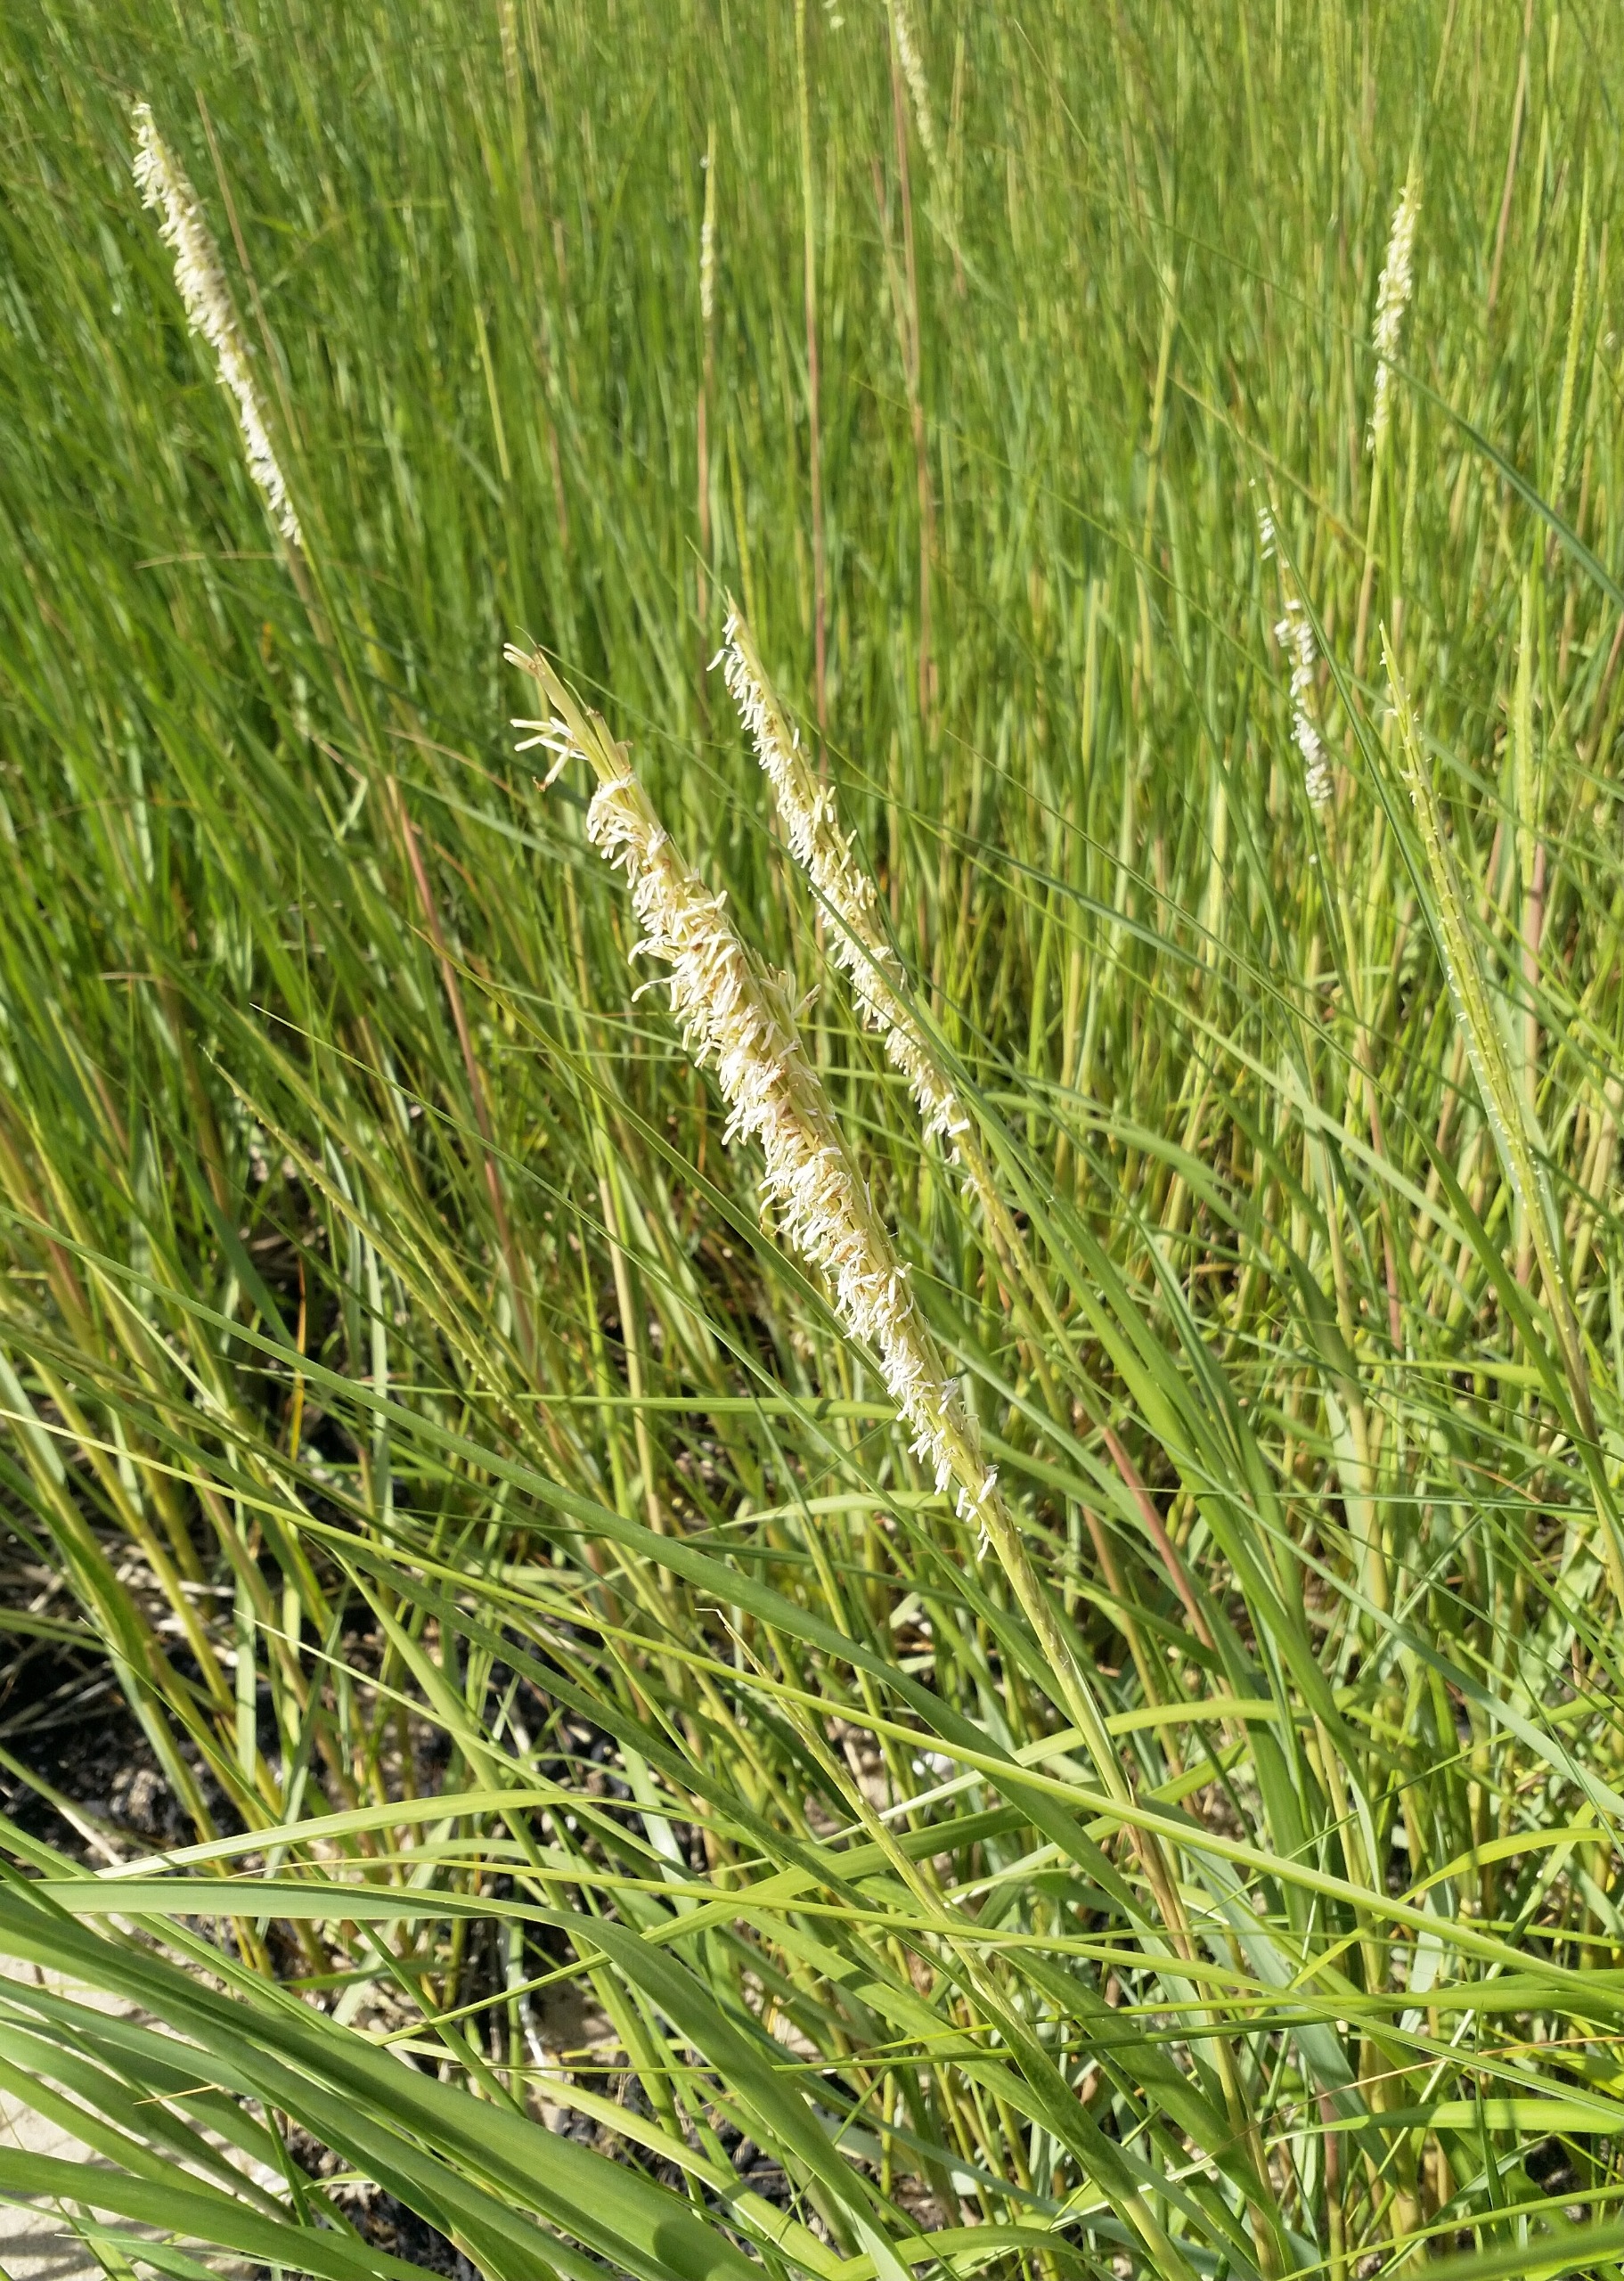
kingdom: Animalia
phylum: Mollusca
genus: Spartina
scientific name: Spartina
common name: Vadegræsslægten
